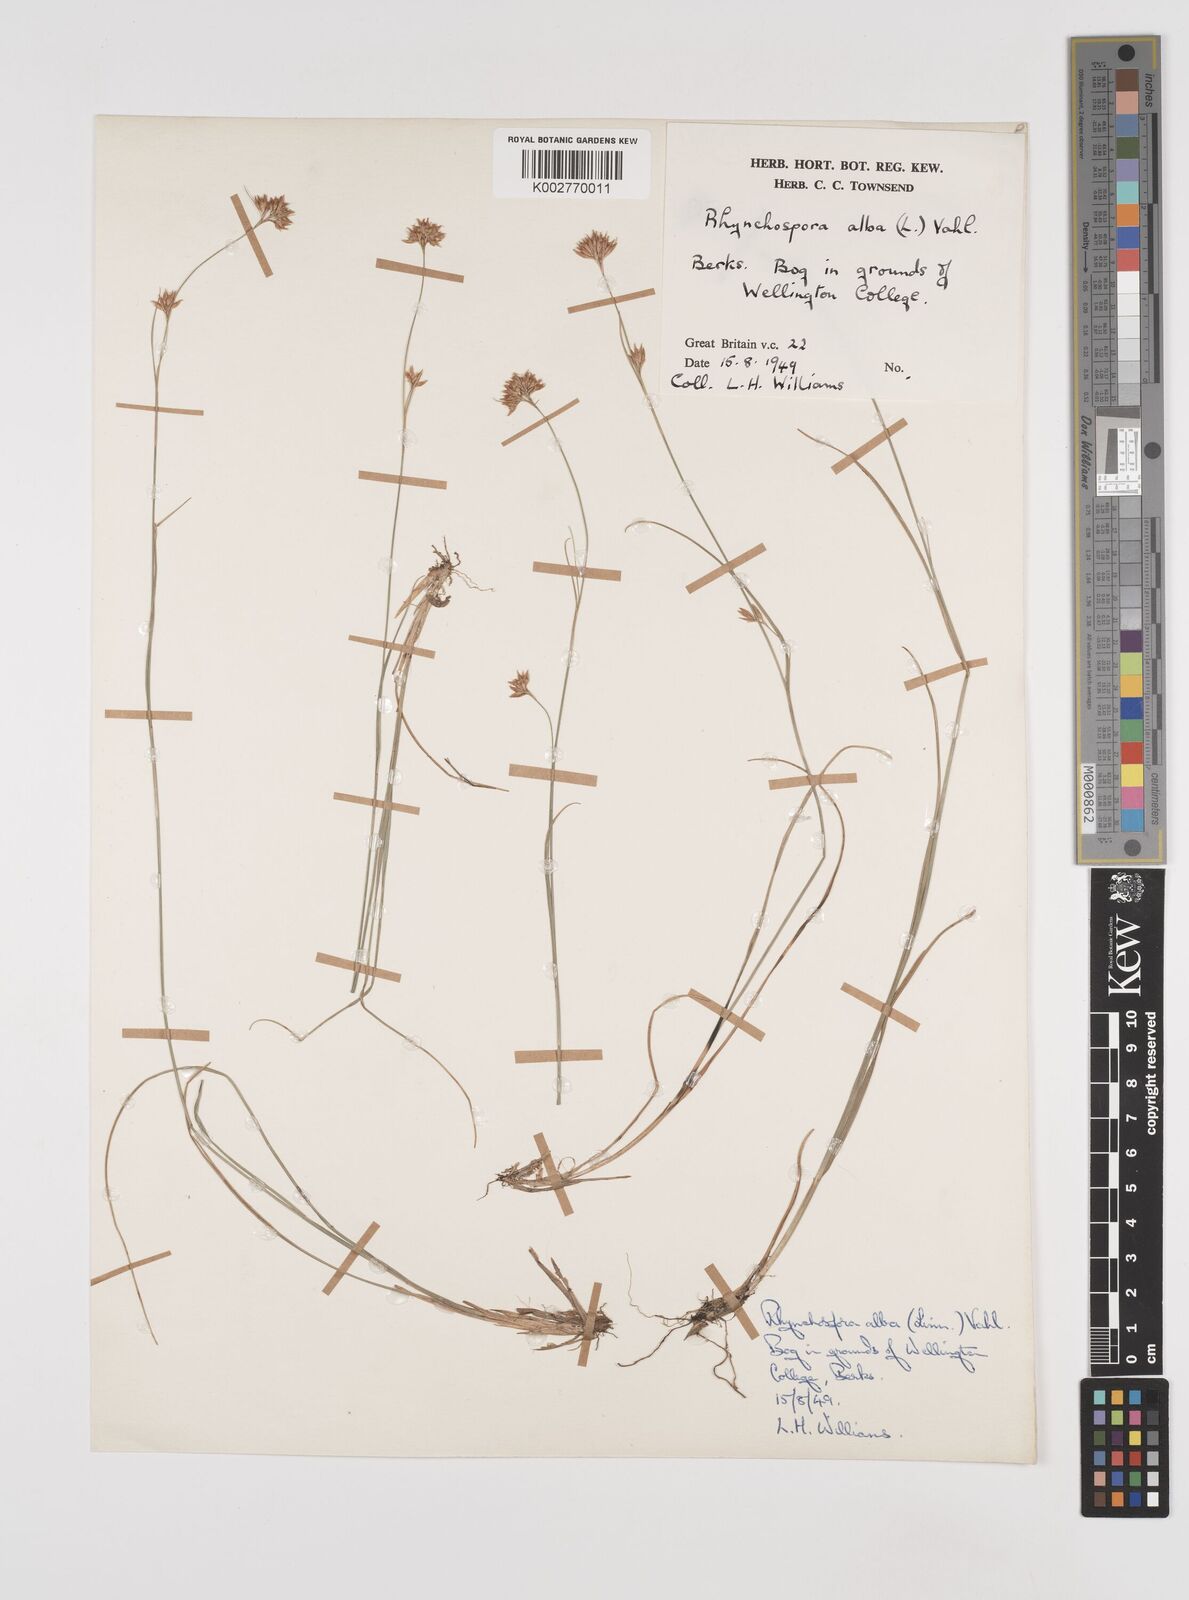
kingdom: Plantae
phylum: Tracheophyta
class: Liliopsida
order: Poales
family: Cyperaceae
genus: Rhynchospora
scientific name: Rhynchospora alba
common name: White beak-sedge
